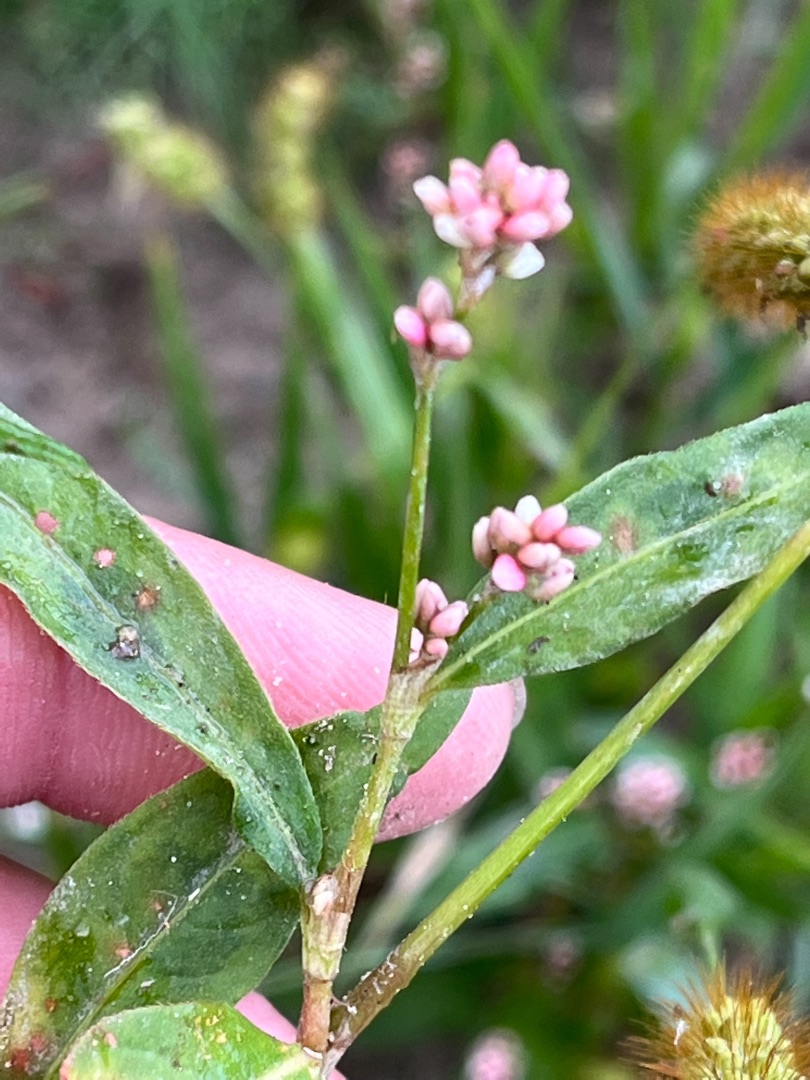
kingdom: Plantae
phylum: Tracheophyta
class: Magnoliopsida
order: Caryophyllales
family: Polygonaceae
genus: Persicaria
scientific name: Persicaria maculosa
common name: Fersken-pileurt
